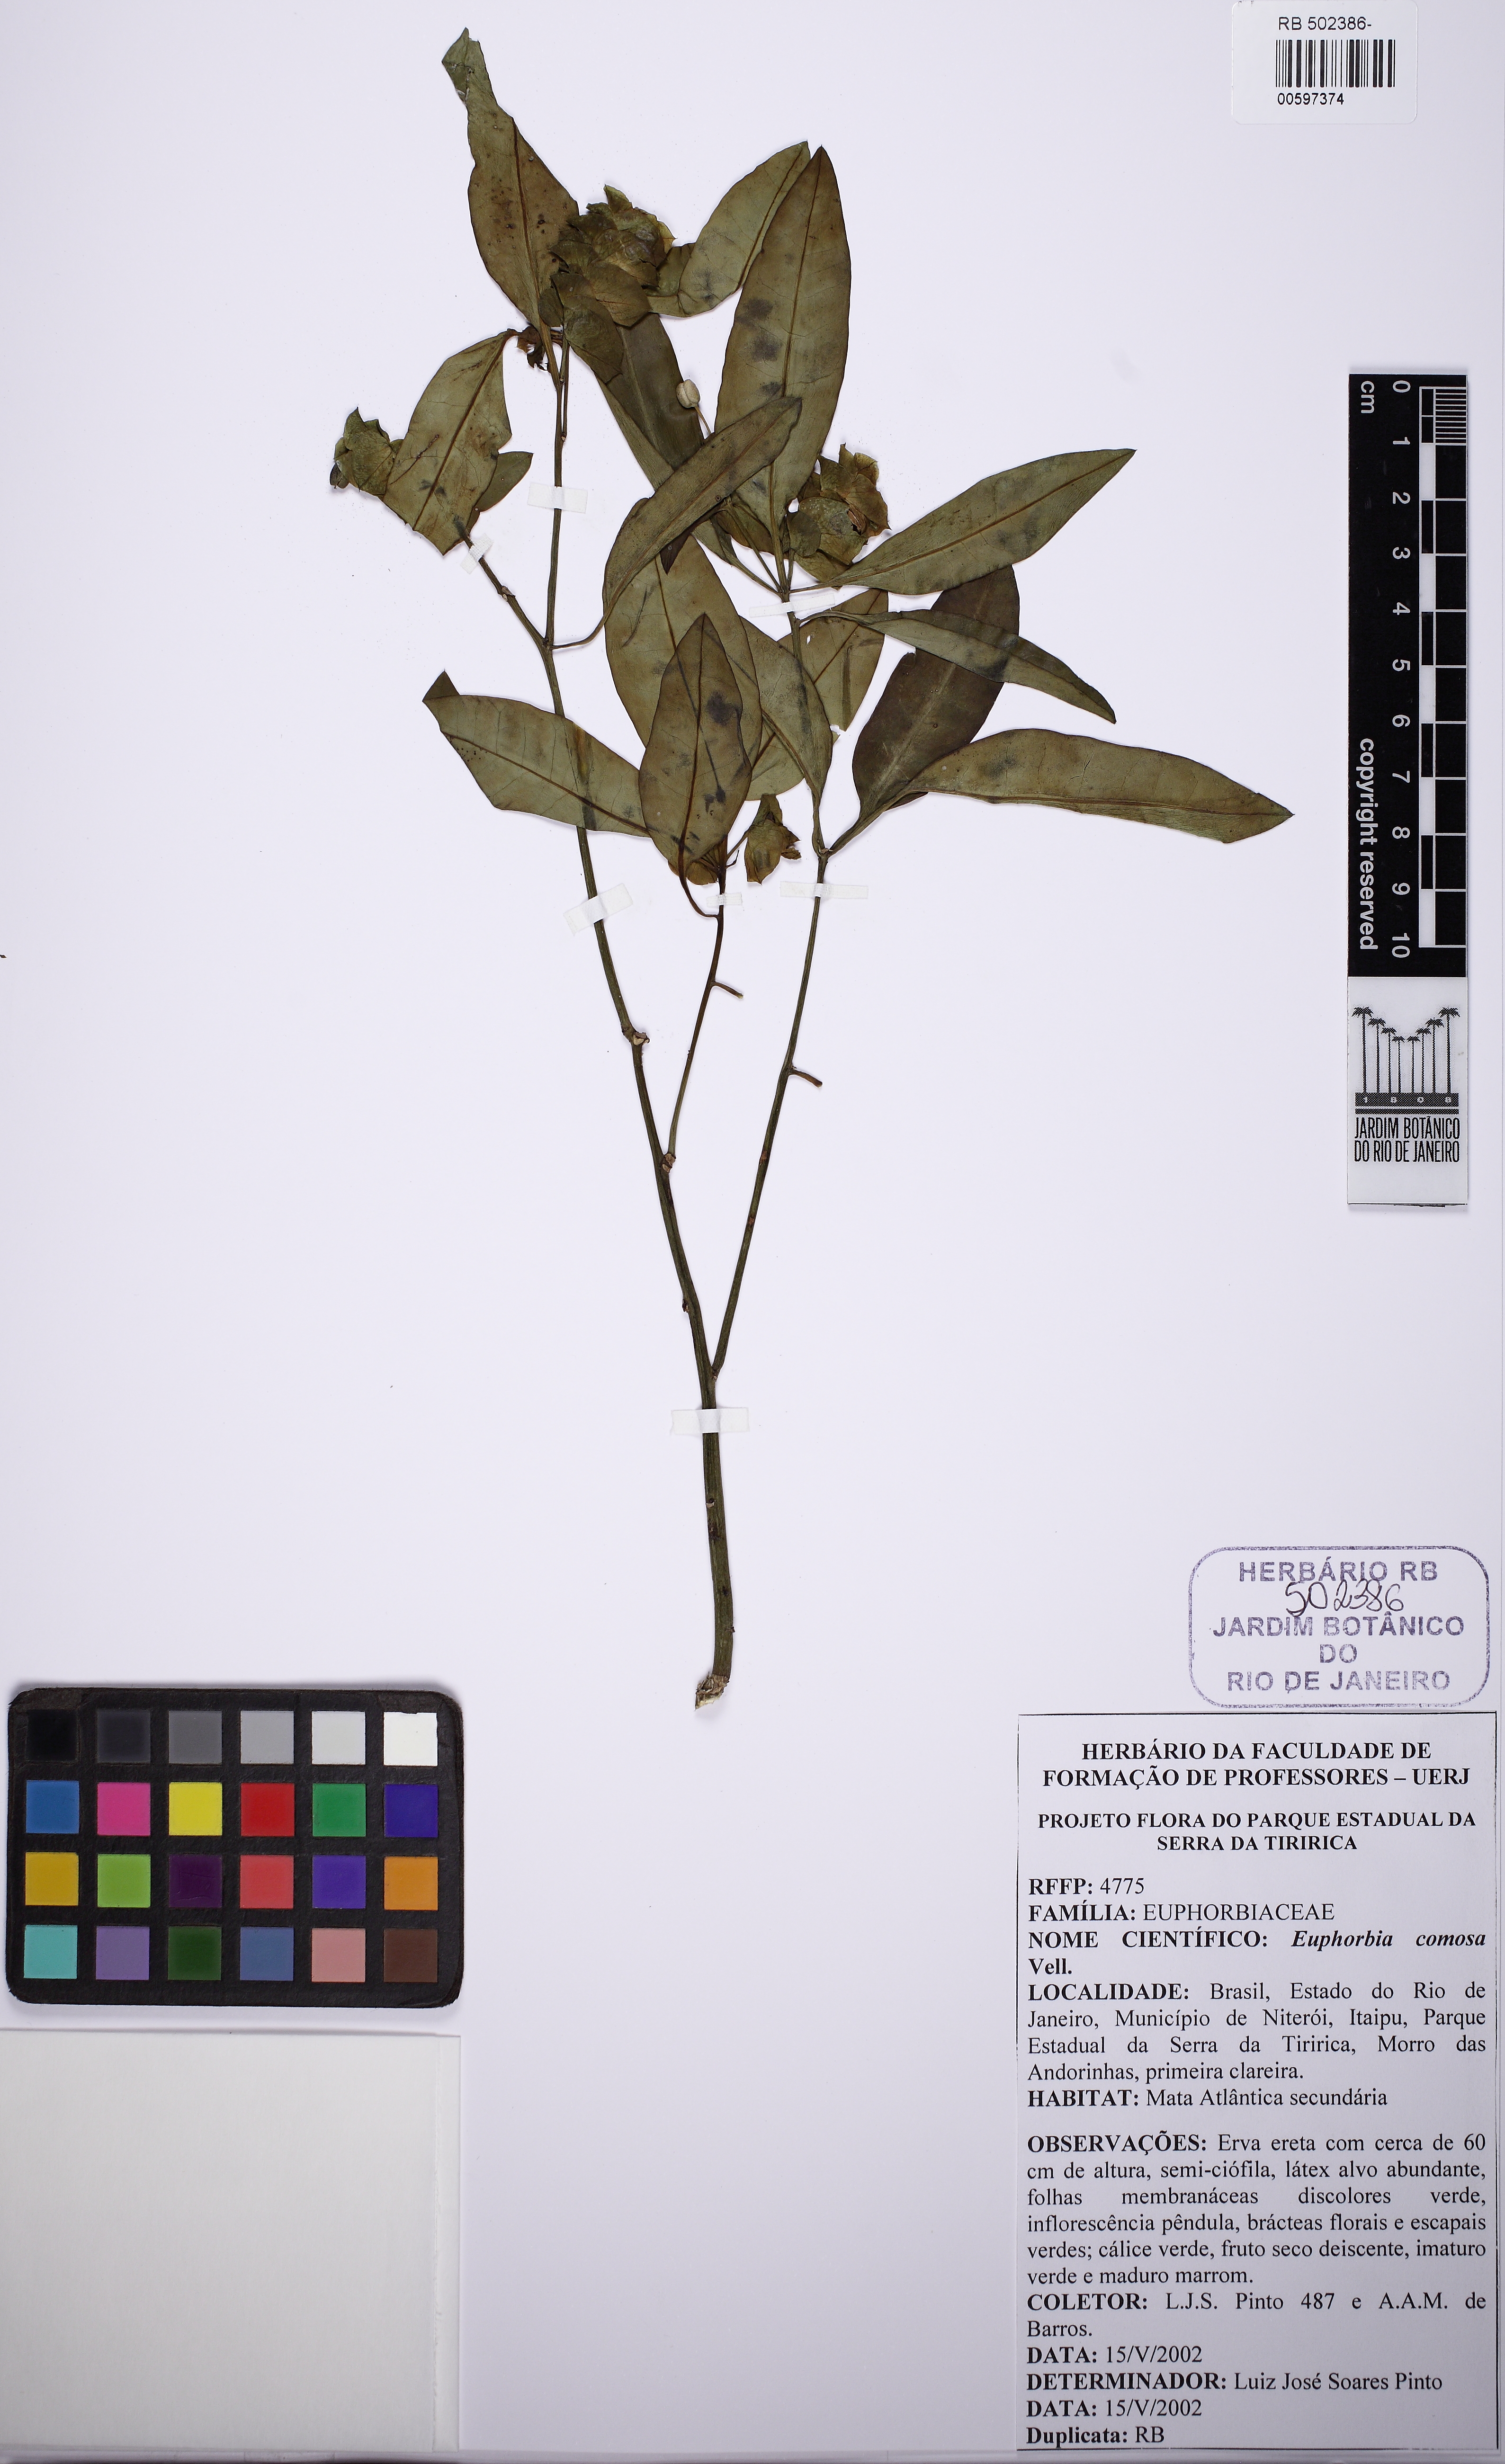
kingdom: Plantae
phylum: Tracheophyta
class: Magnoliopsida
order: Malpighiales
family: Euphorbiaceae
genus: Euphorbia
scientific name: Euphorbia comosa
